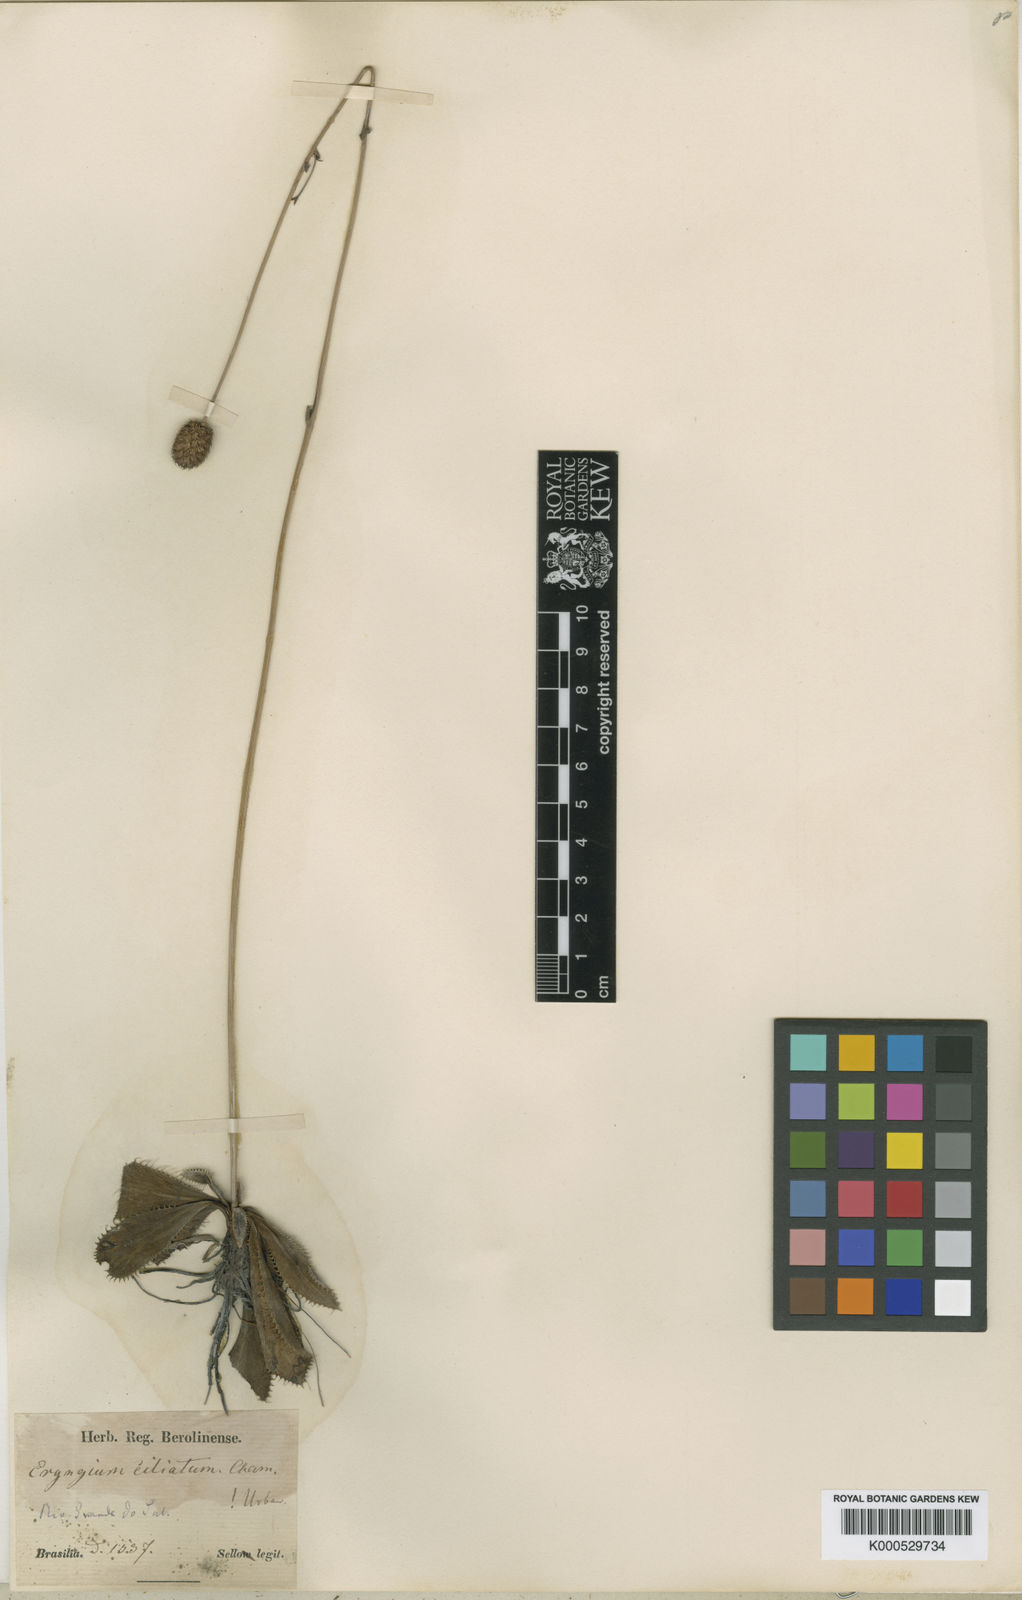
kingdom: Plantae
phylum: Tracheophyta
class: Magnoliopsida
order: Apiales
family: Apiaceae
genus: Eryngium
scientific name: Eryngium ciliatum
